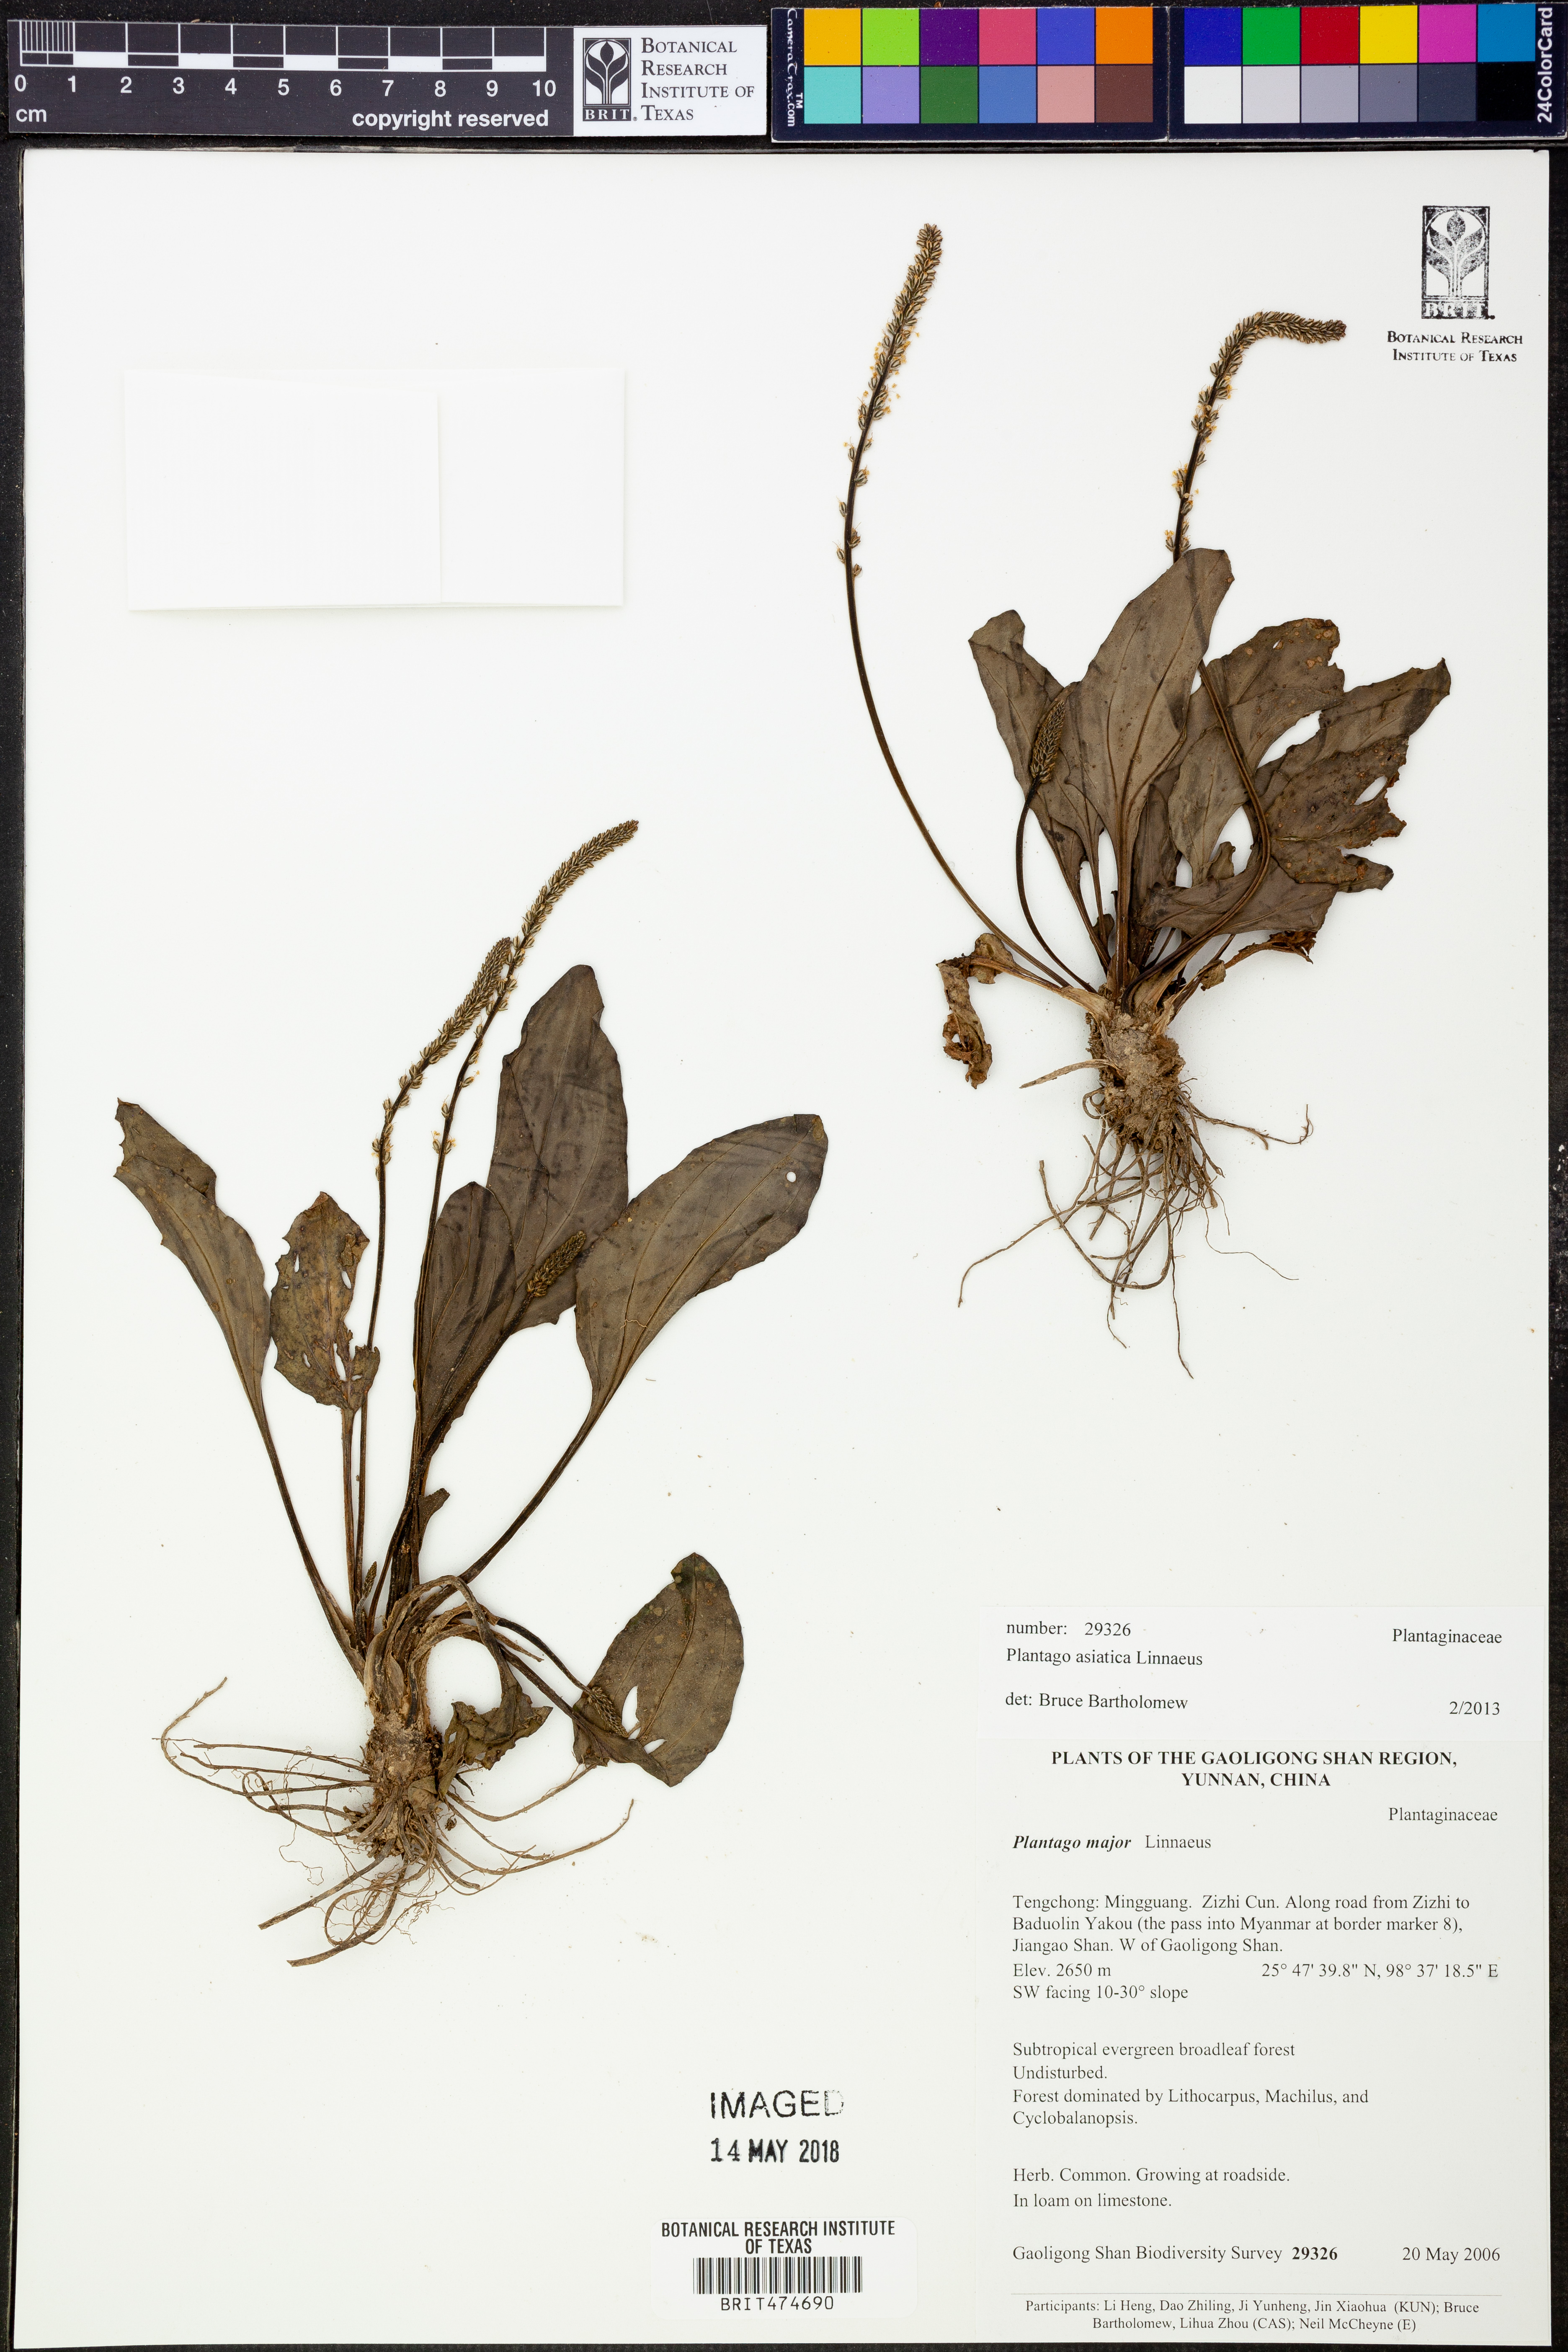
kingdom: Plantae
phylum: Tracheophyta
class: Magnoliopsida
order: Lamiales
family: Plantaginaceae
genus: Plantago
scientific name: Plantago asiatica
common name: Psyllium
